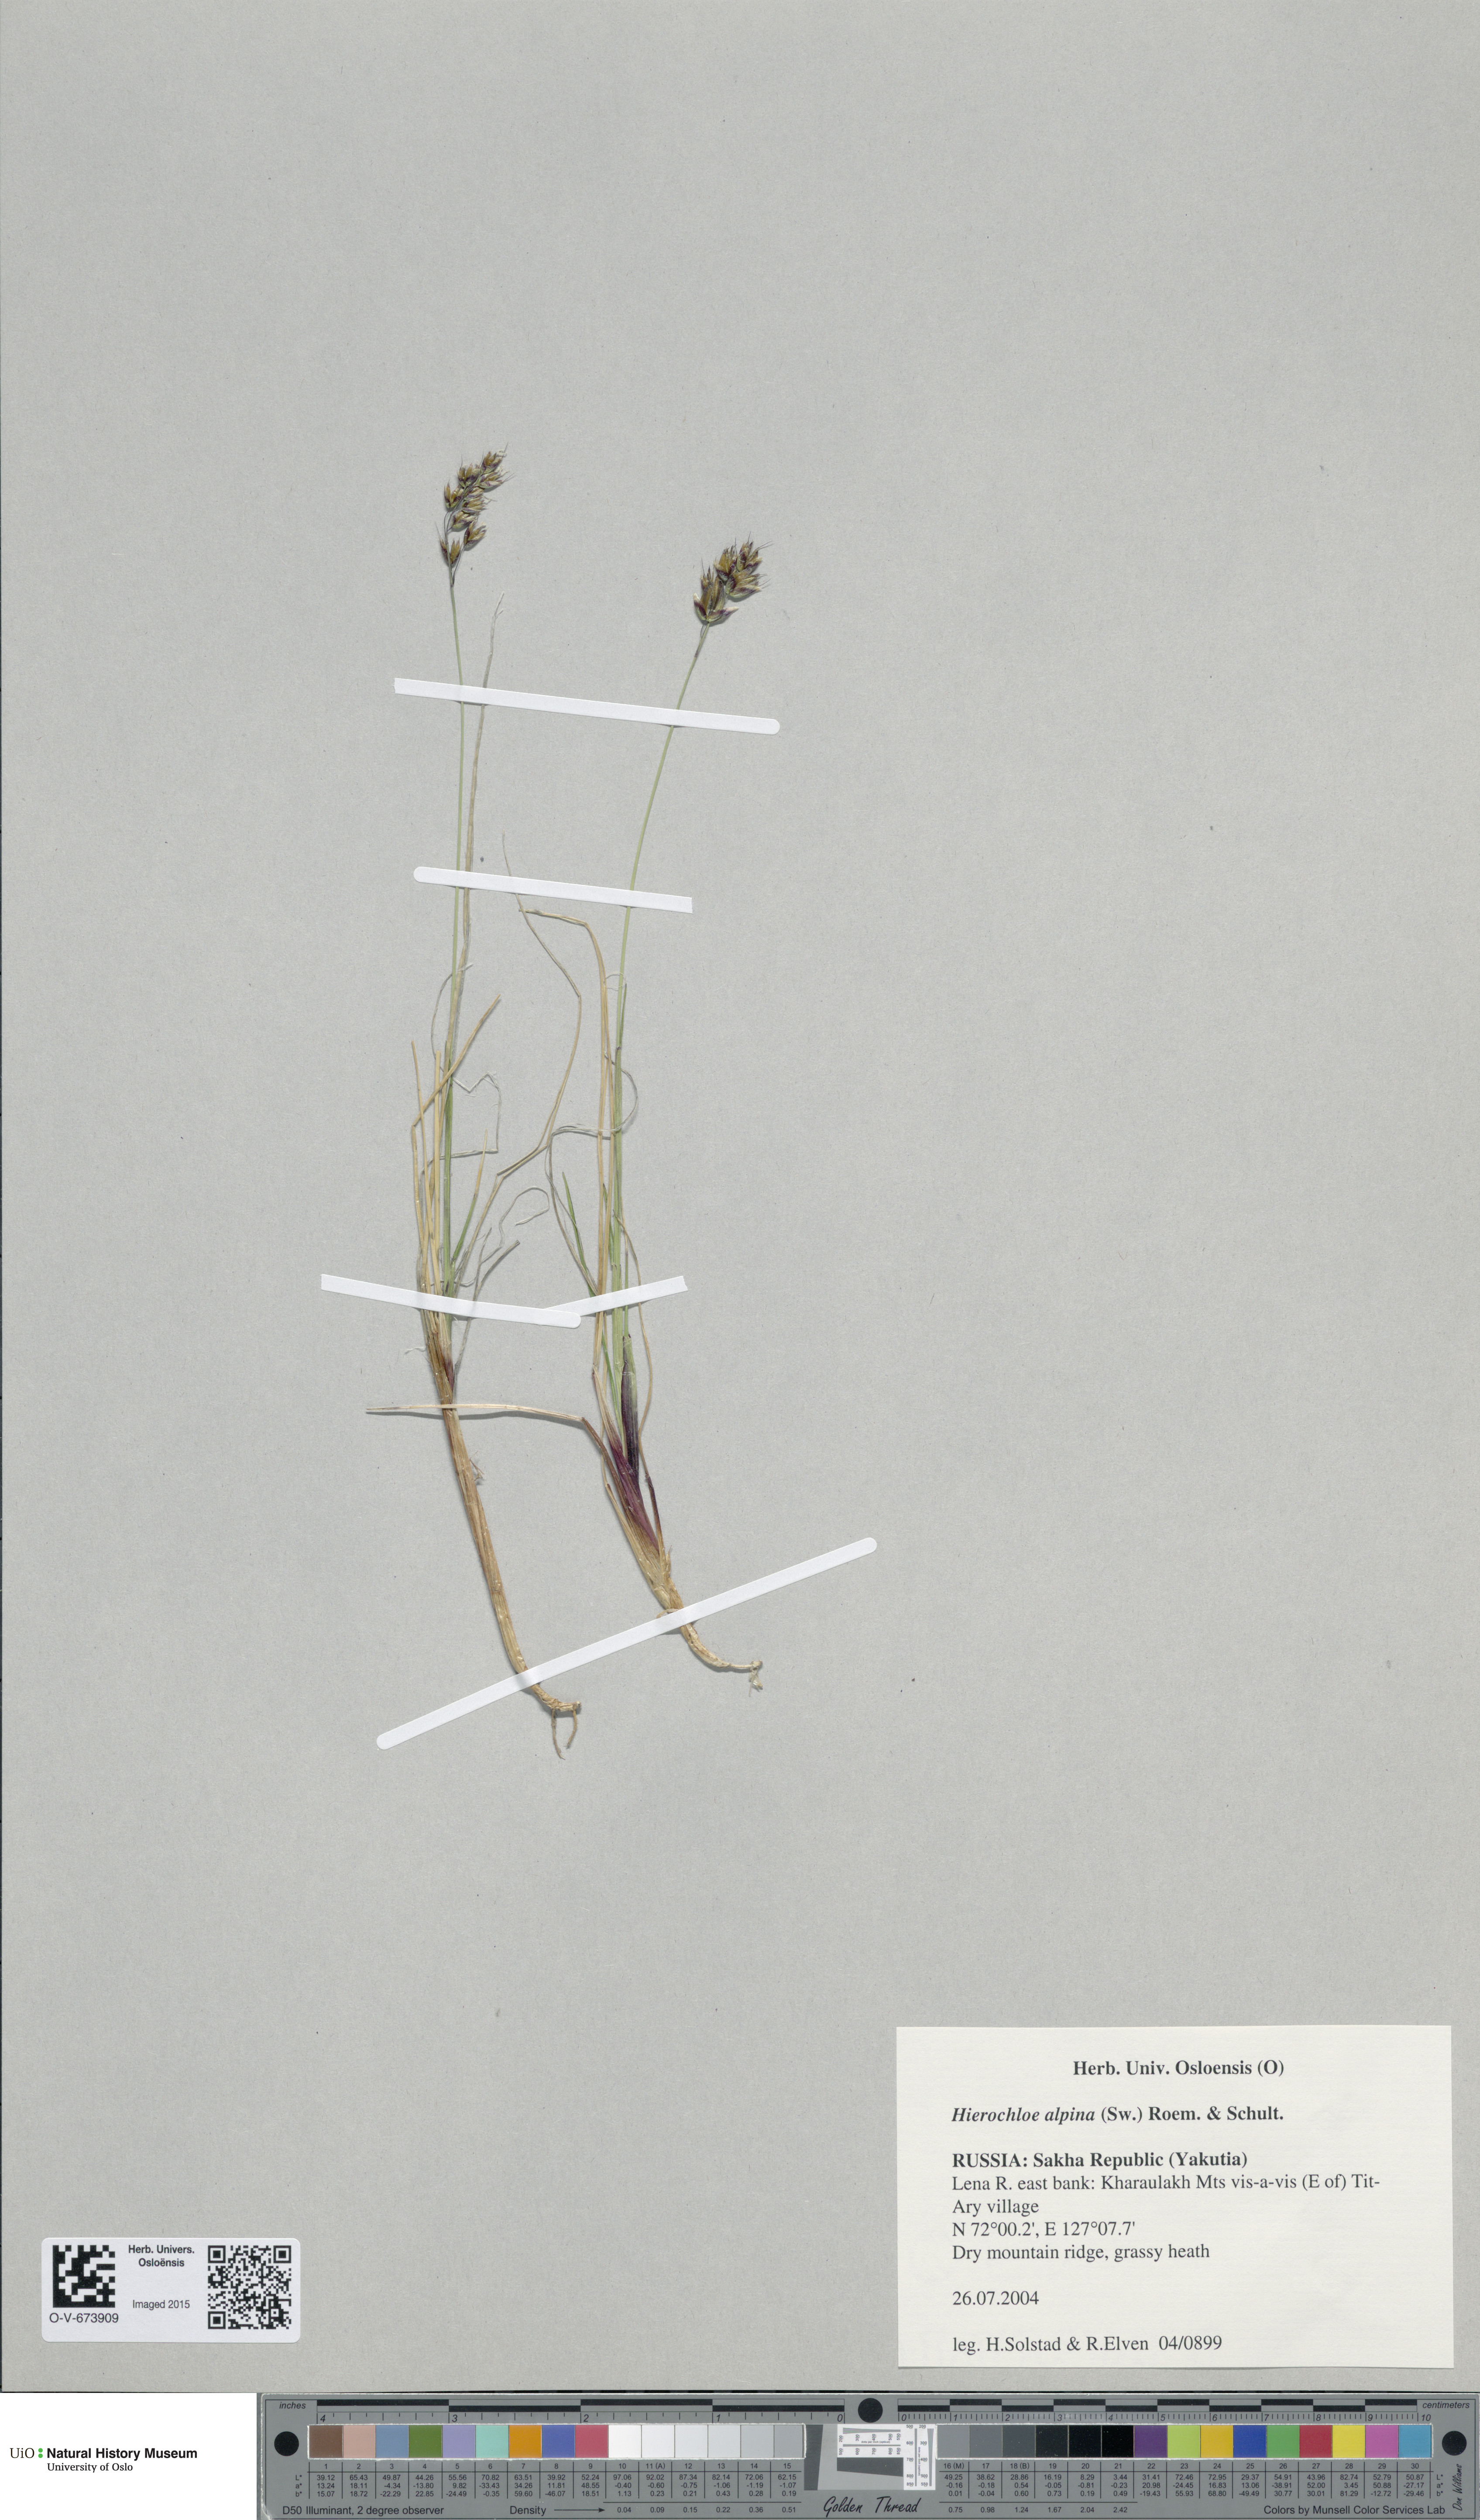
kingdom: Plantae
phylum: Tracheophyta
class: Liliopsida
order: Poales
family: Poaceae
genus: Anthoxanthum
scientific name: Anthoxanthum monticola
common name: Alpine sweetgrass
